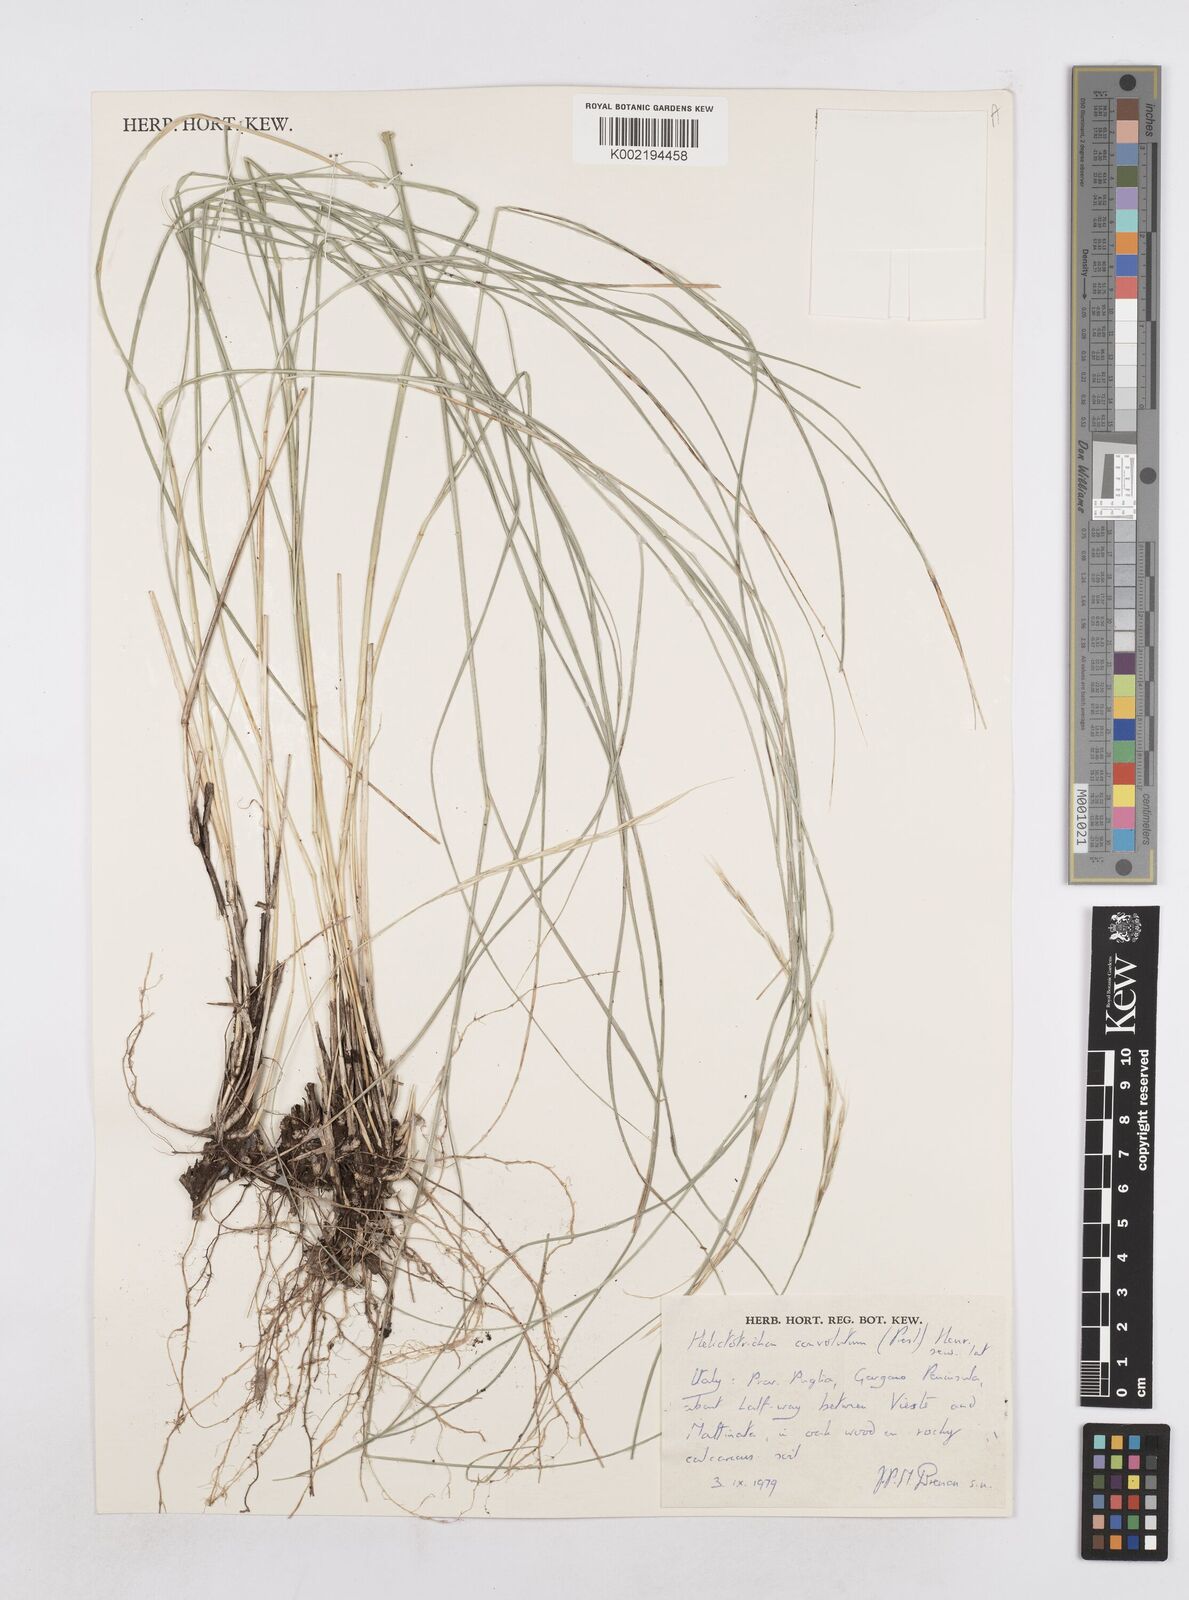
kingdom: Plantae
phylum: Tracheophyta
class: Liliopsida
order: Poales
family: Poaceae
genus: Helictotrichon
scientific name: Helictotrichon convolutum
